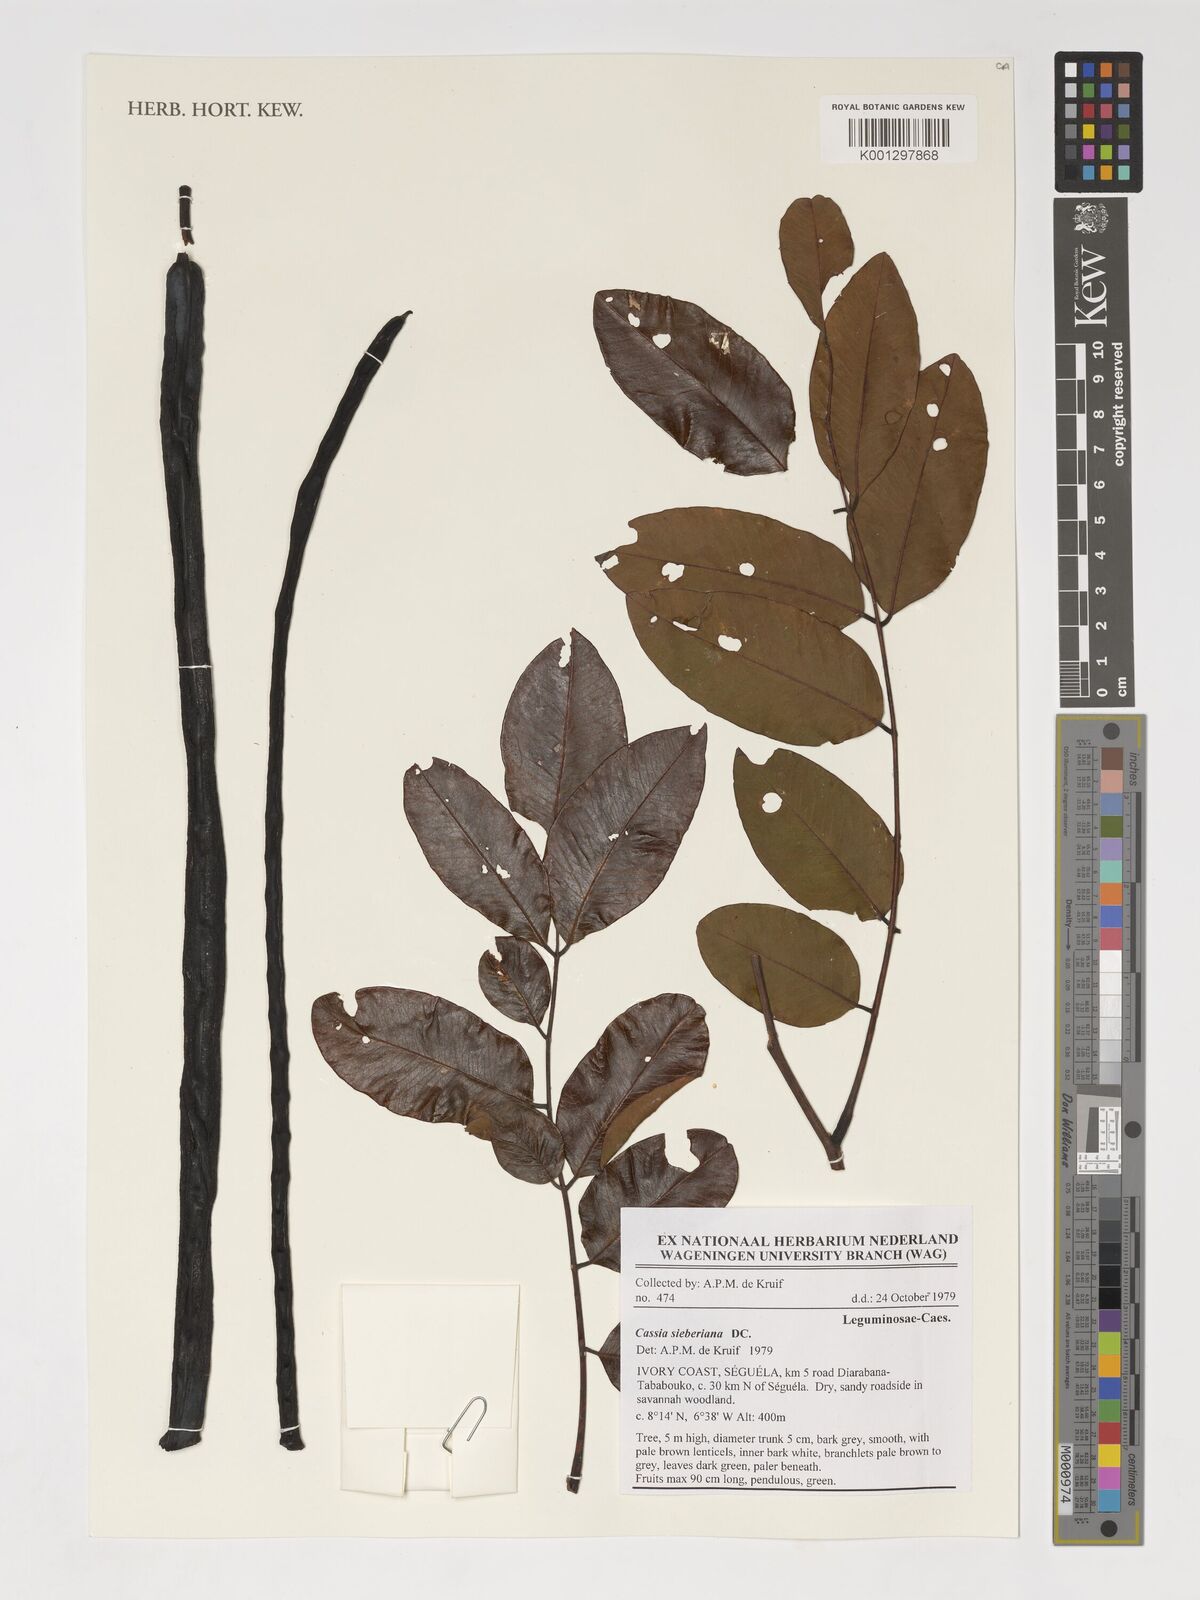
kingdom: Plantae
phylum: Tracheophyta
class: Magnoliopsida
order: Fabales
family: Fabaceae
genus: Cassia
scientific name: Cassia sieberiana
